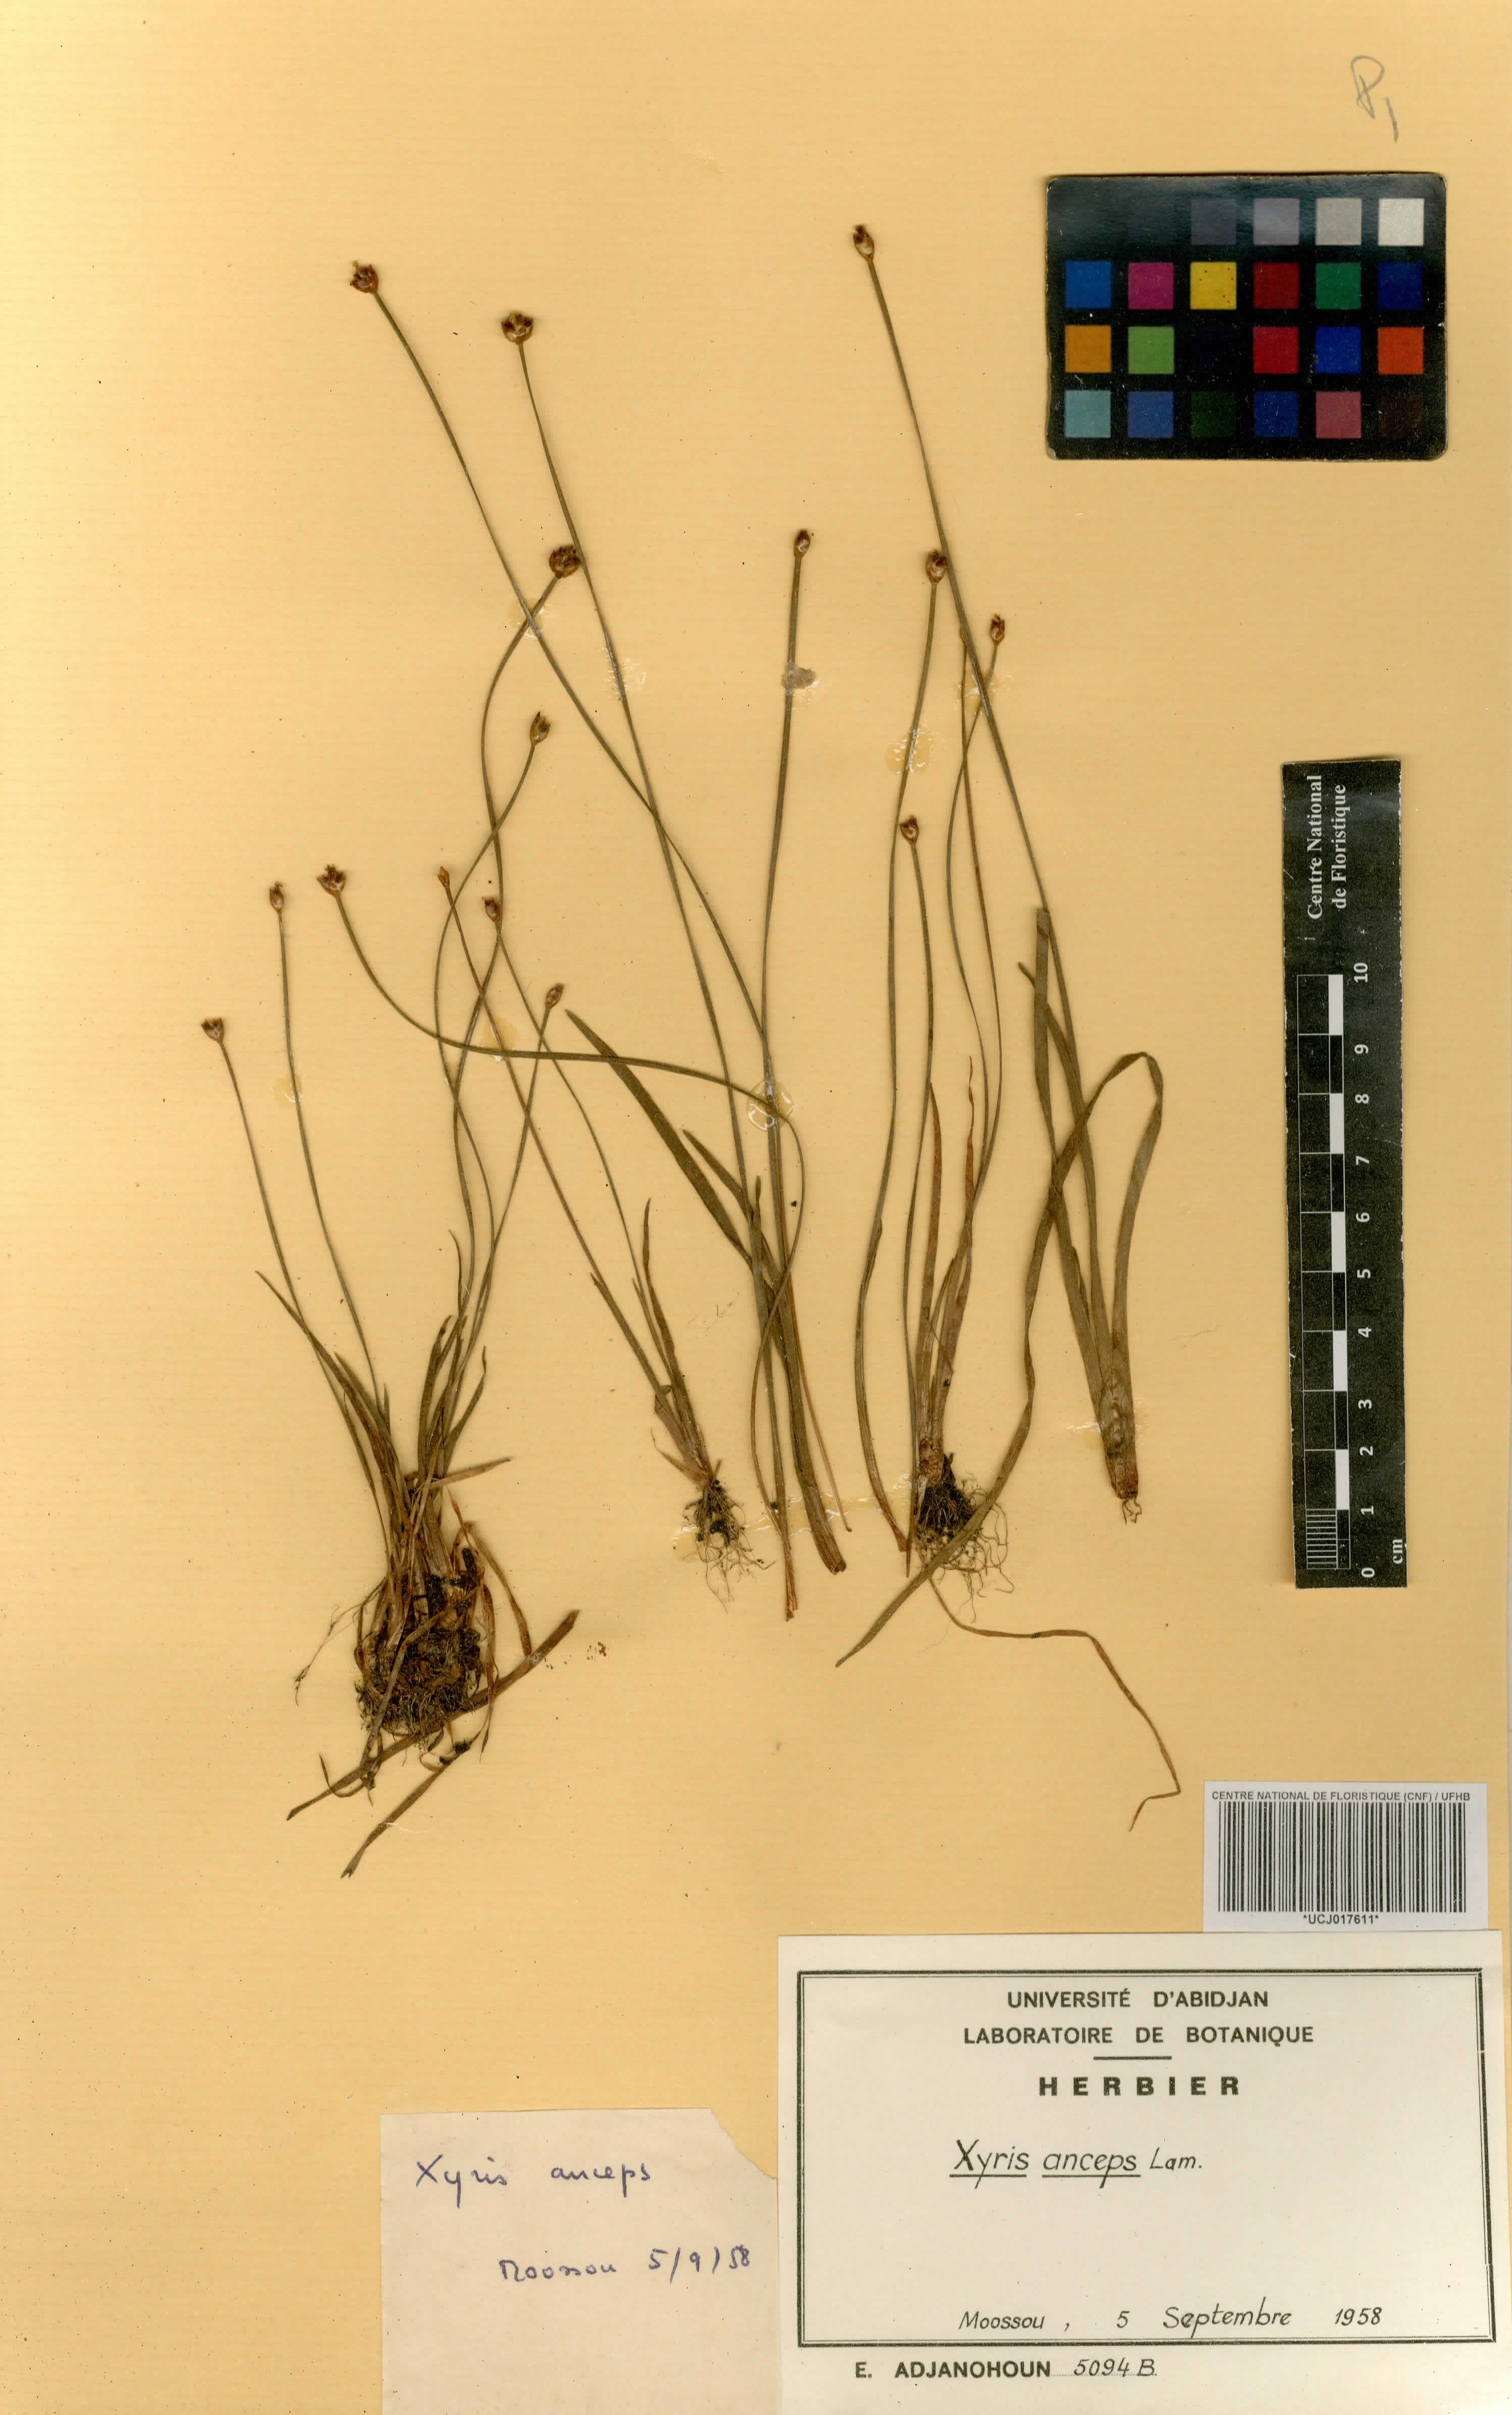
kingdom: Plantae
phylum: Tracheophyta
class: Liliopsida
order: Poales
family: Xyridaceae
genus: Xyris
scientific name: Xyris anceps
